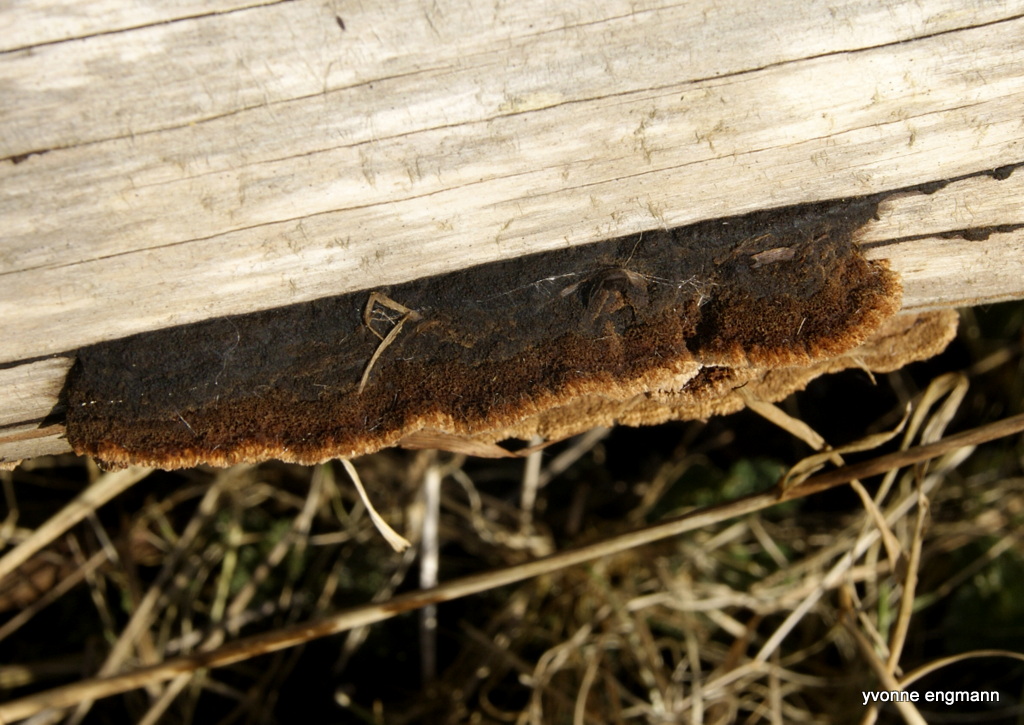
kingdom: Fungi
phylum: Basidiomycota
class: Agaricomycetes
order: Gloeophyllales
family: Gloeophyllaceae
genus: Gloeophyllum
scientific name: Gloeophyllum sepiarium
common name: fyrre-korkhat
